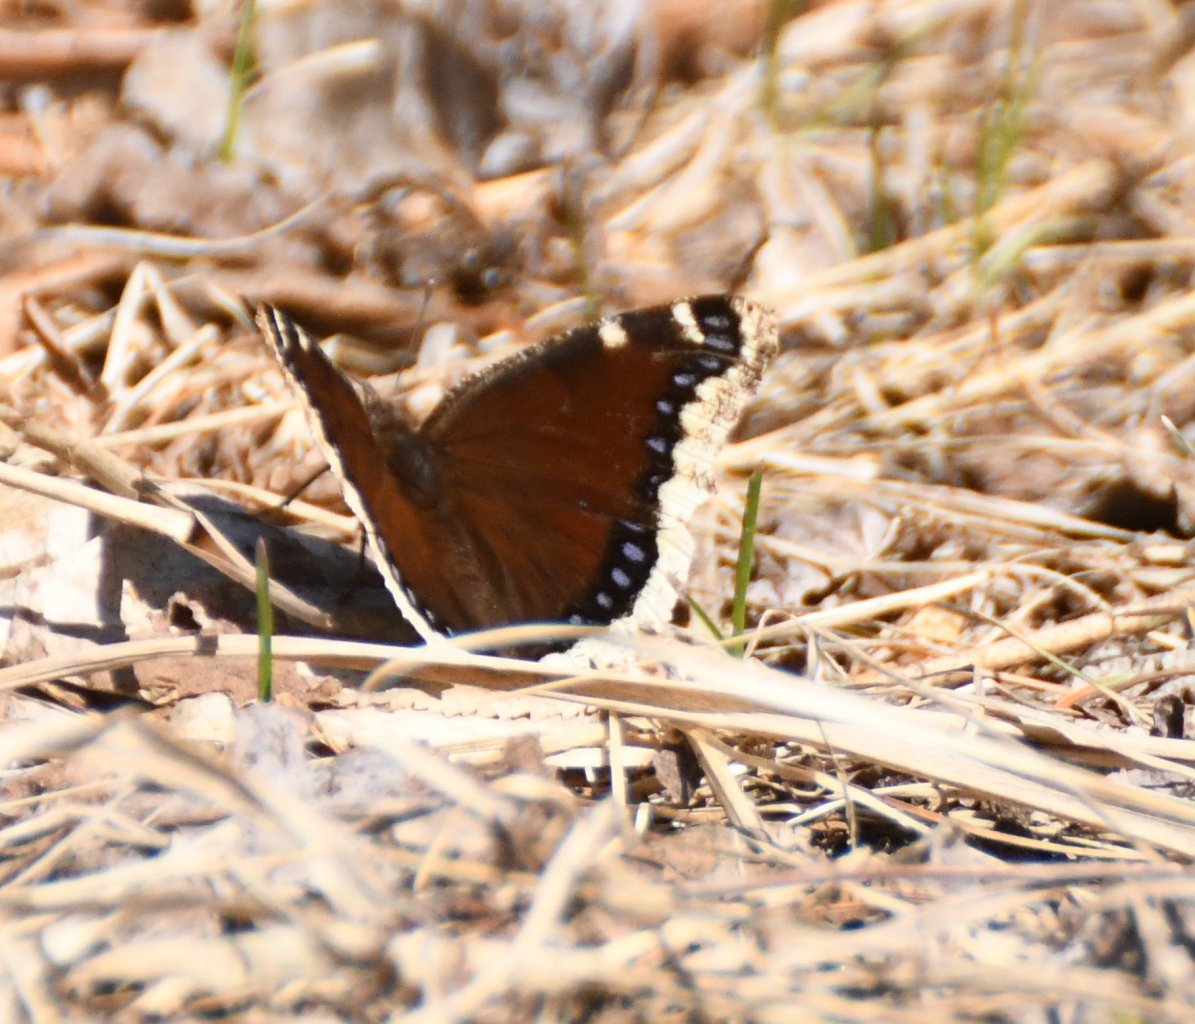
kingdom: Animalia
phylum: Arthropoda
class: Insecta
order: Lepidoptera
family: Nymphalidae
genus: Nymphalis
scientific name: Nymphalis antiopa
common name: Mourning Cloak
